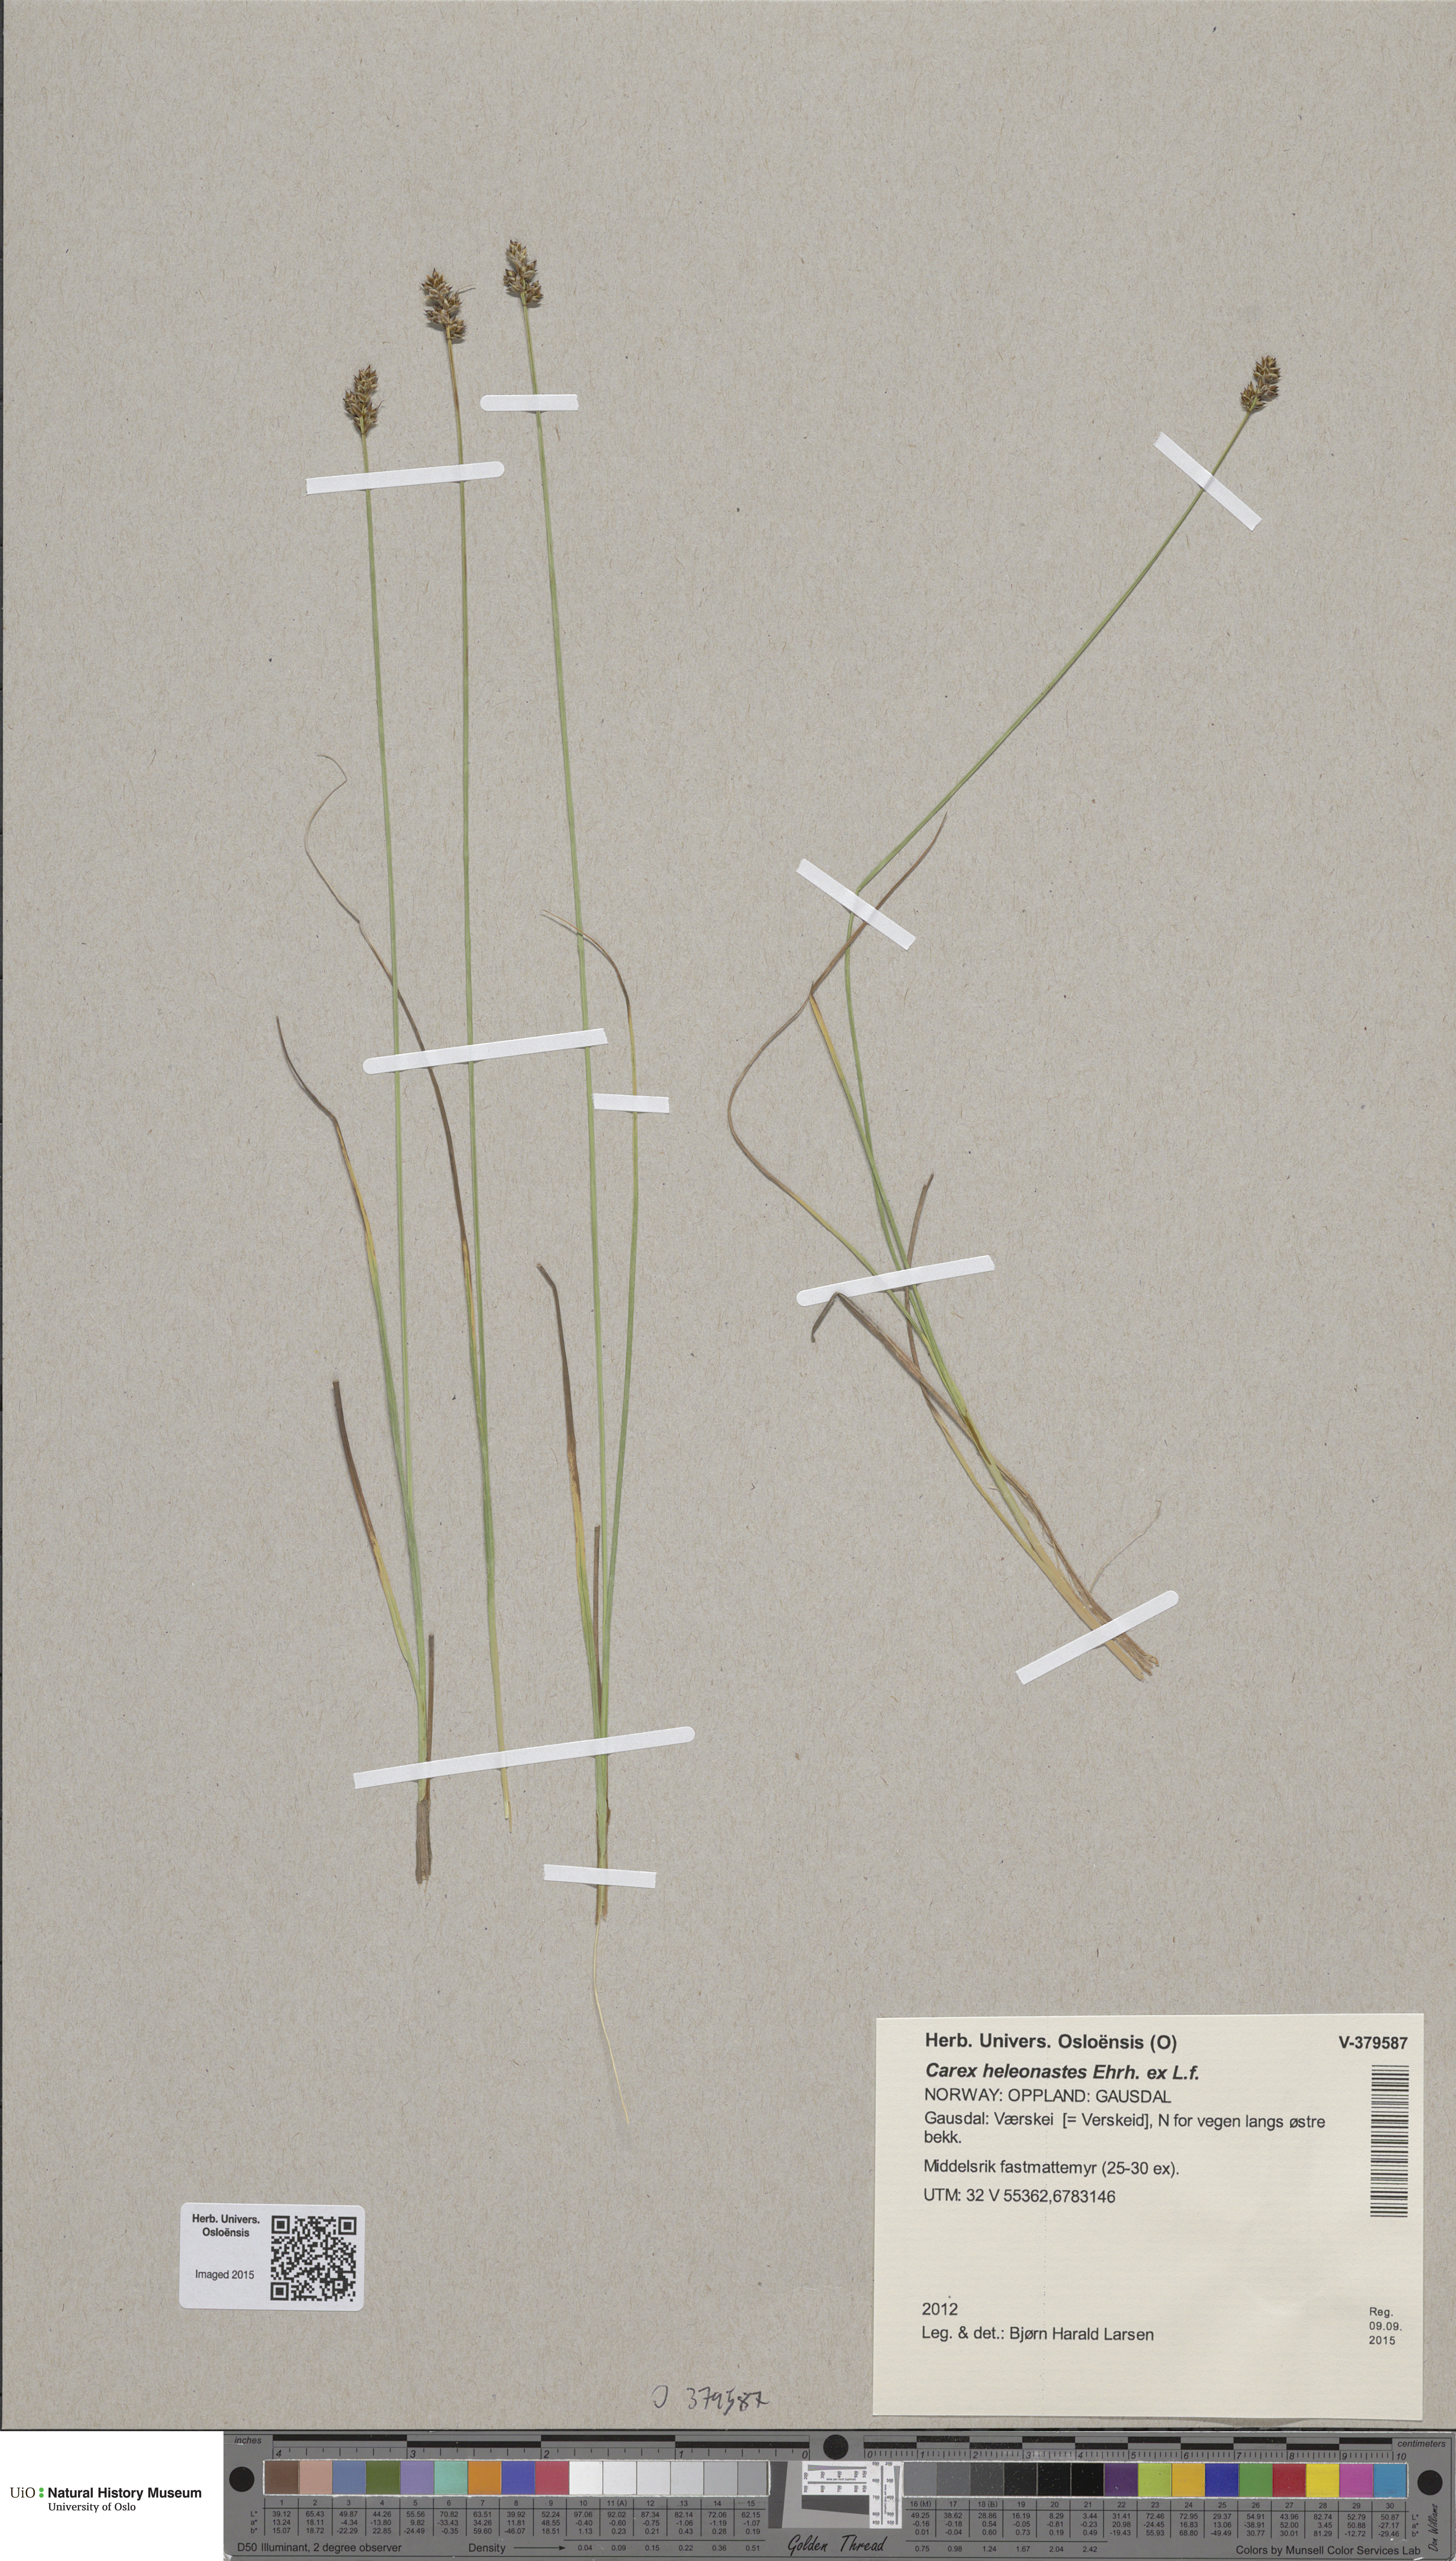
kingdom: Plantae
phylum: Tracheophyta
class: Liliopsida
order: Poales
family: Cyperaceae
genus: Carex
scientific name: Carex heleonastes
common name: Hudson bay sedge
